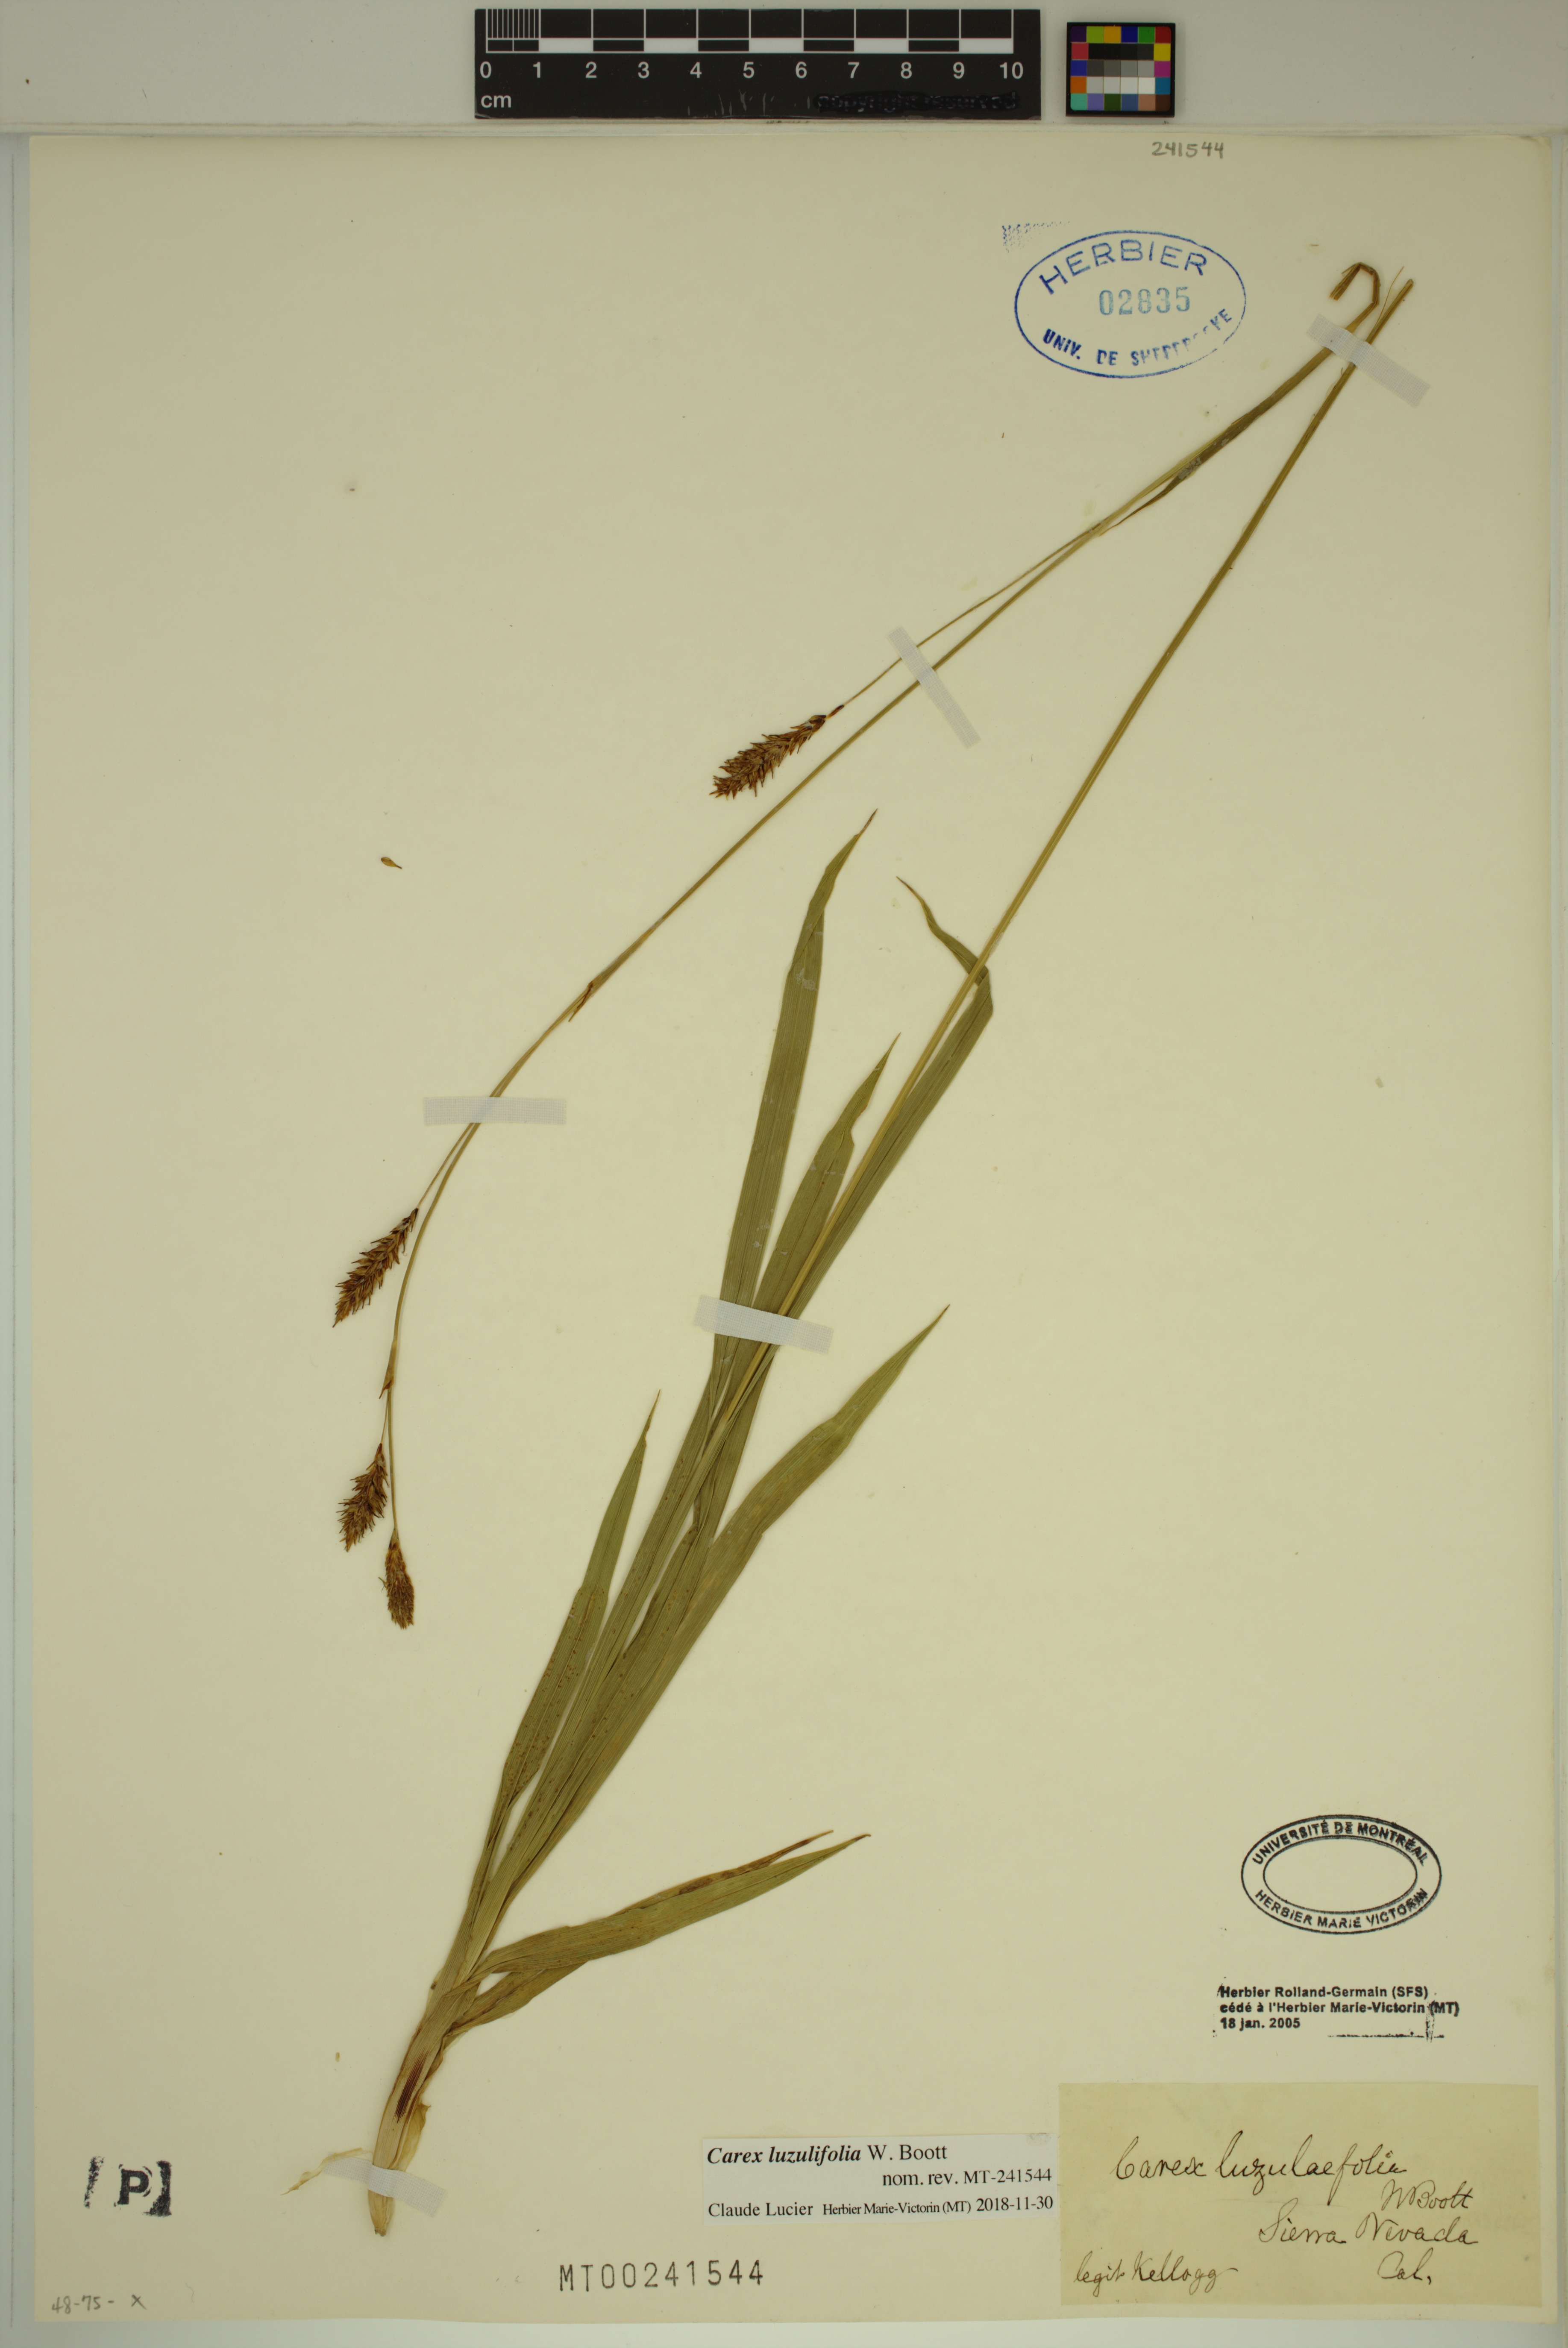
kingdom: Plantae
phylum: Tracheophyta
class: Liliopsida
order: Poales
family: Cyperaceae
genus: Carex
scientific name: Carex luzulifolia
